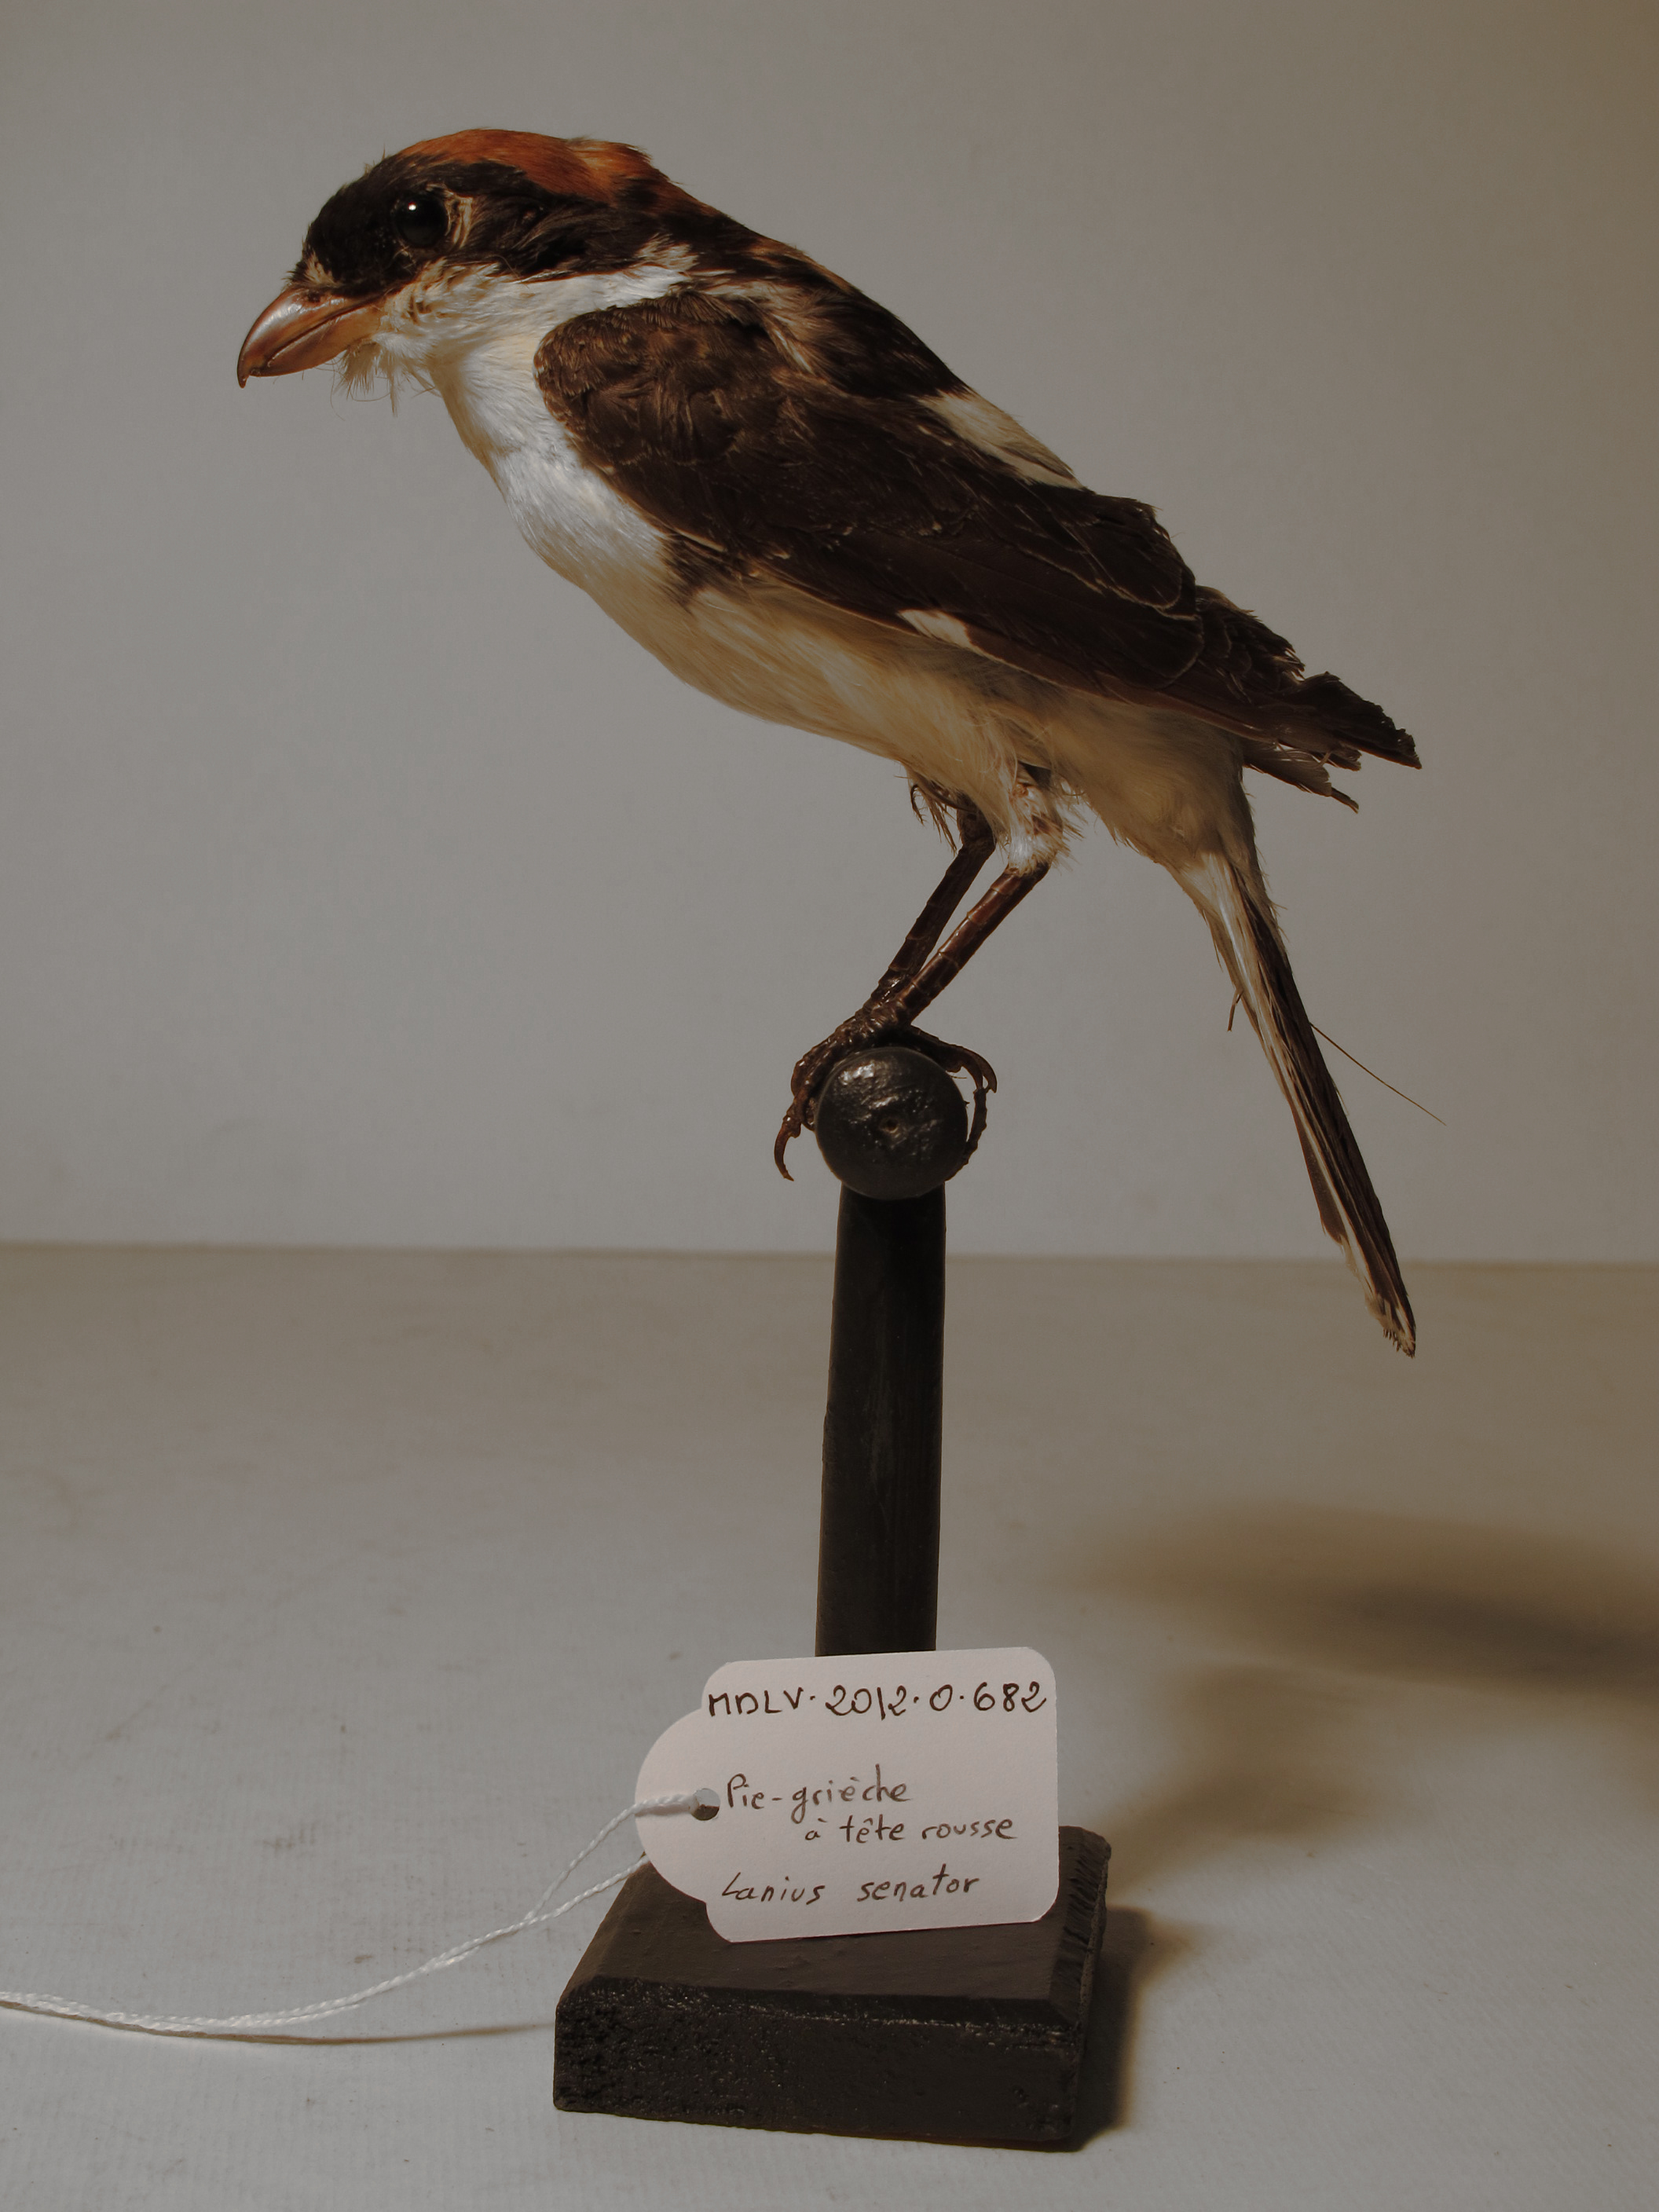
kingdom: Animalia
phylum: Chordata
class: Aves
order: Passeriformes
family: Laniidae
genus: Lanius
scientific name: Lanius senator
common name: Woodchat Shrike
